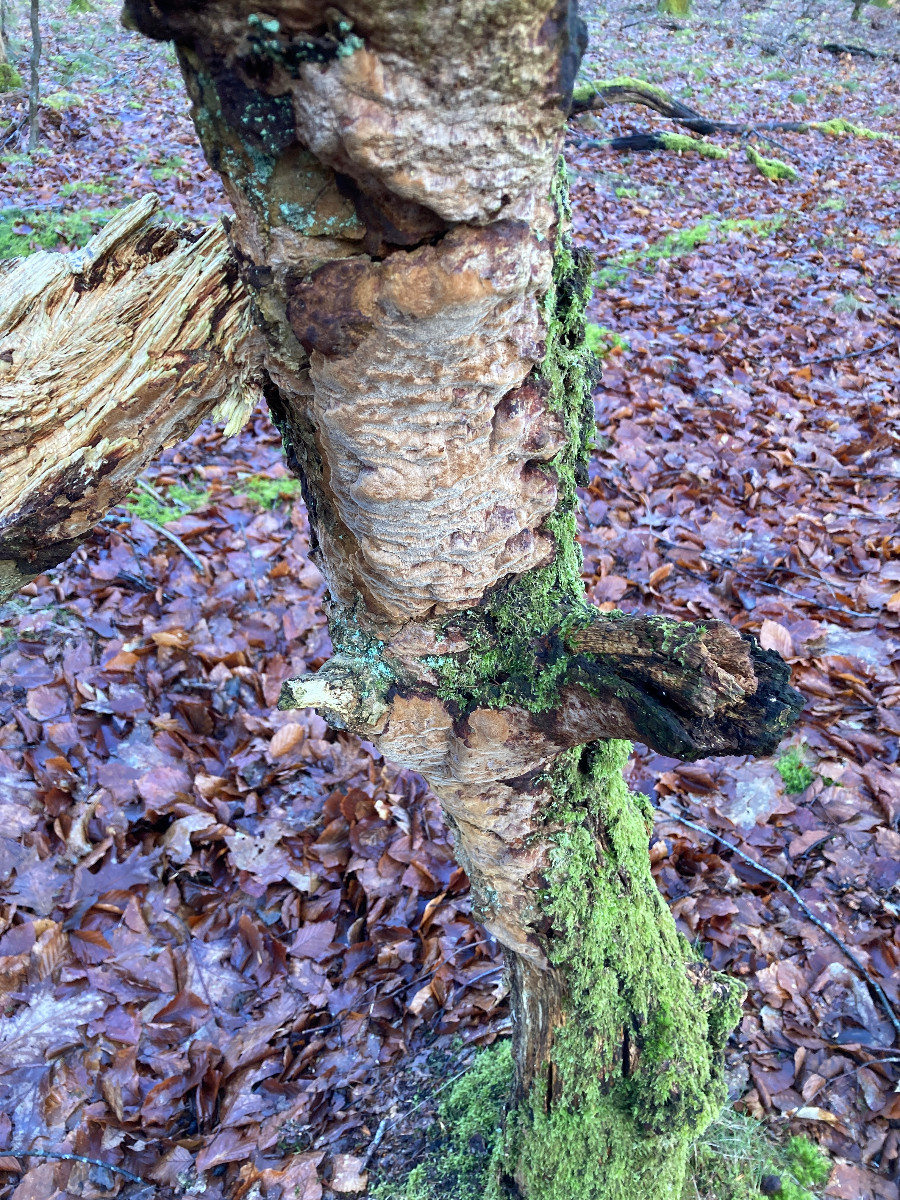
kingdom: Fungi
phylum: Basidiomycota
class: Agaricomycetes
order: Hymenochaetales
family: Hymenochaetaceae
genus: Fuscoporia
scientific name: Fuscoporia ferrea
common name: skorpe-ildporesvamp
